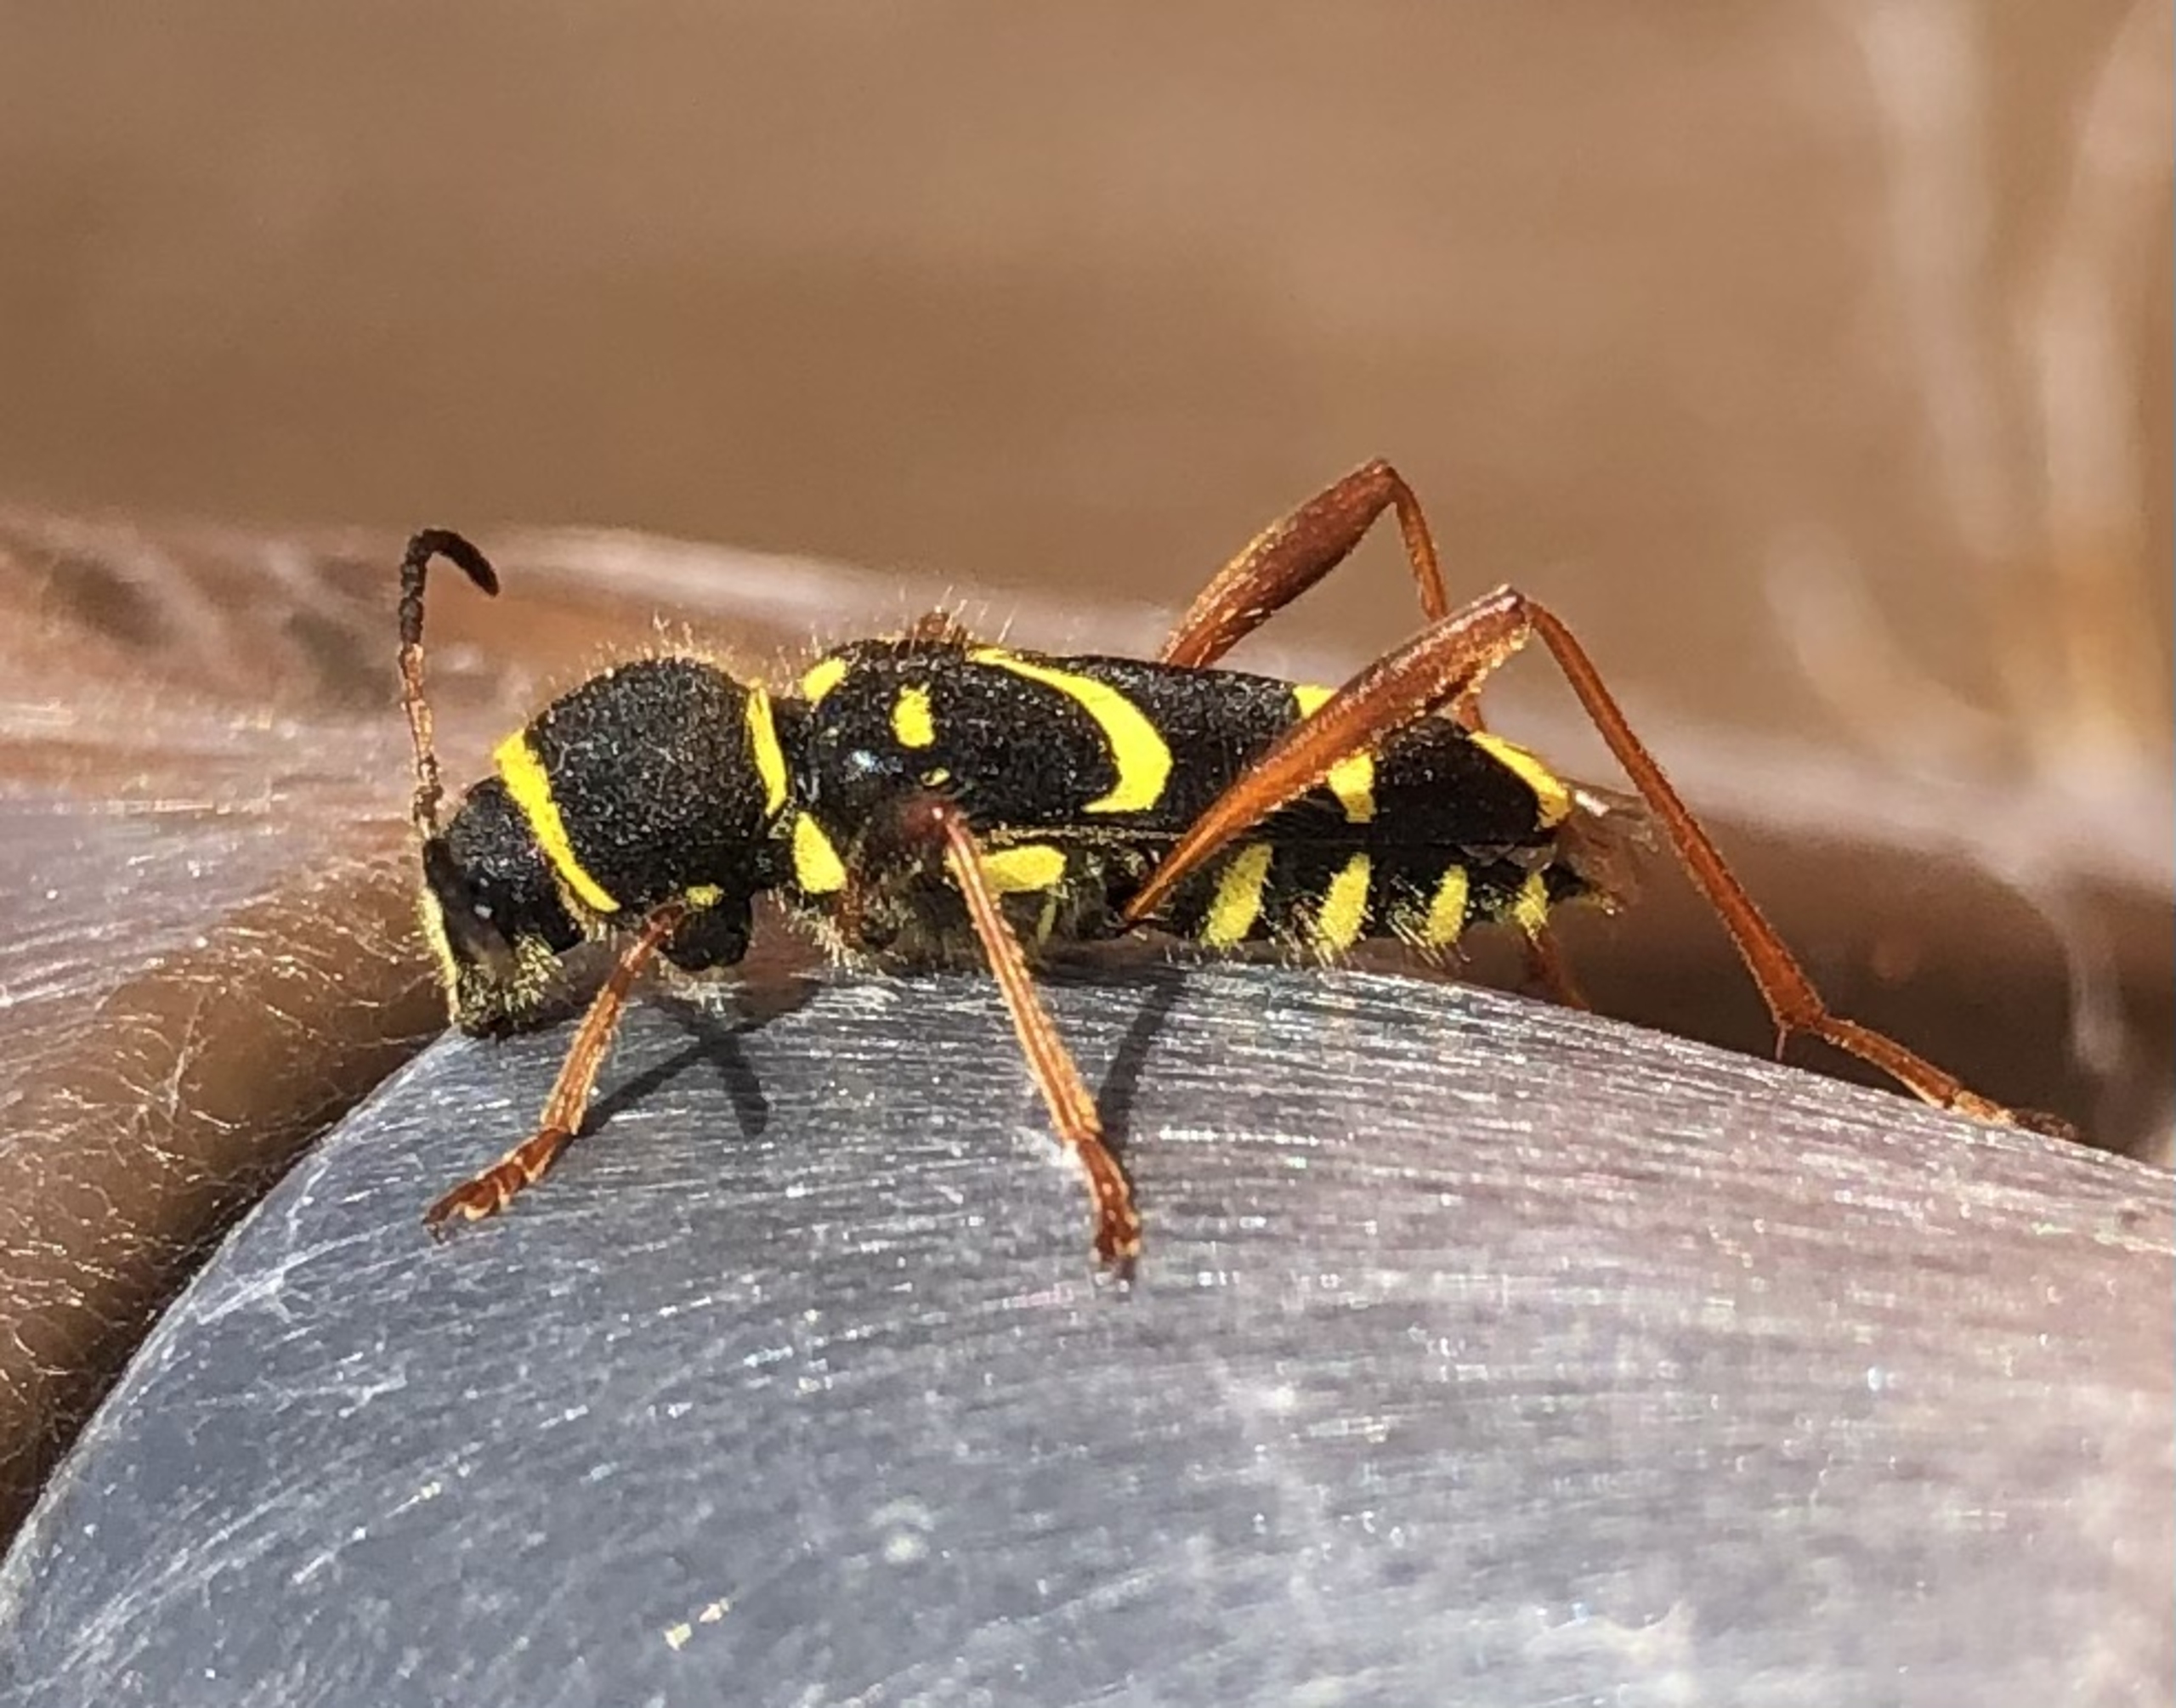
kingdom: Animalia
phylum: Arthropoda
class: Insecta
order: Coleoptera
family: Cerambycidae
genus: Clytus
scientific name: Clytus arietis
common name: Lille hvepsebuk
